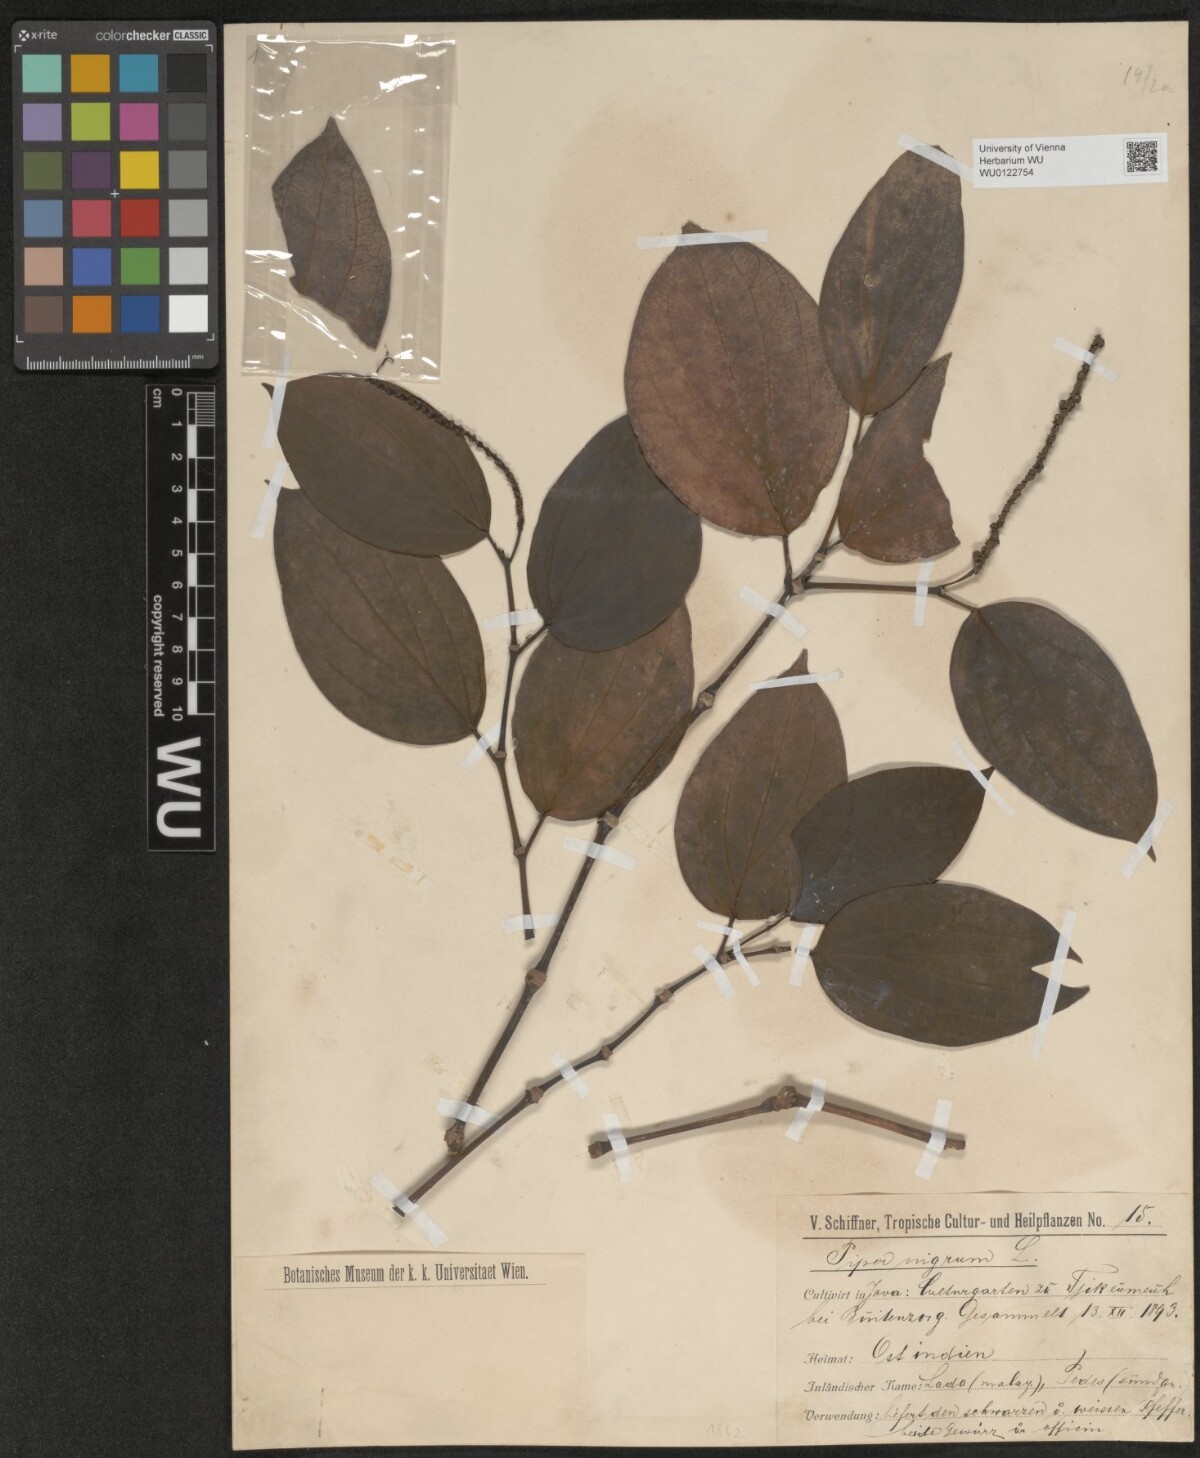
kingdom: Plantae
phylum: Tracheophyta
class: Magnoliopsida
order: Piperales
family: Piperaceae
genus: Piper
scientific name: Piper nigrum
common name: Black pepper
